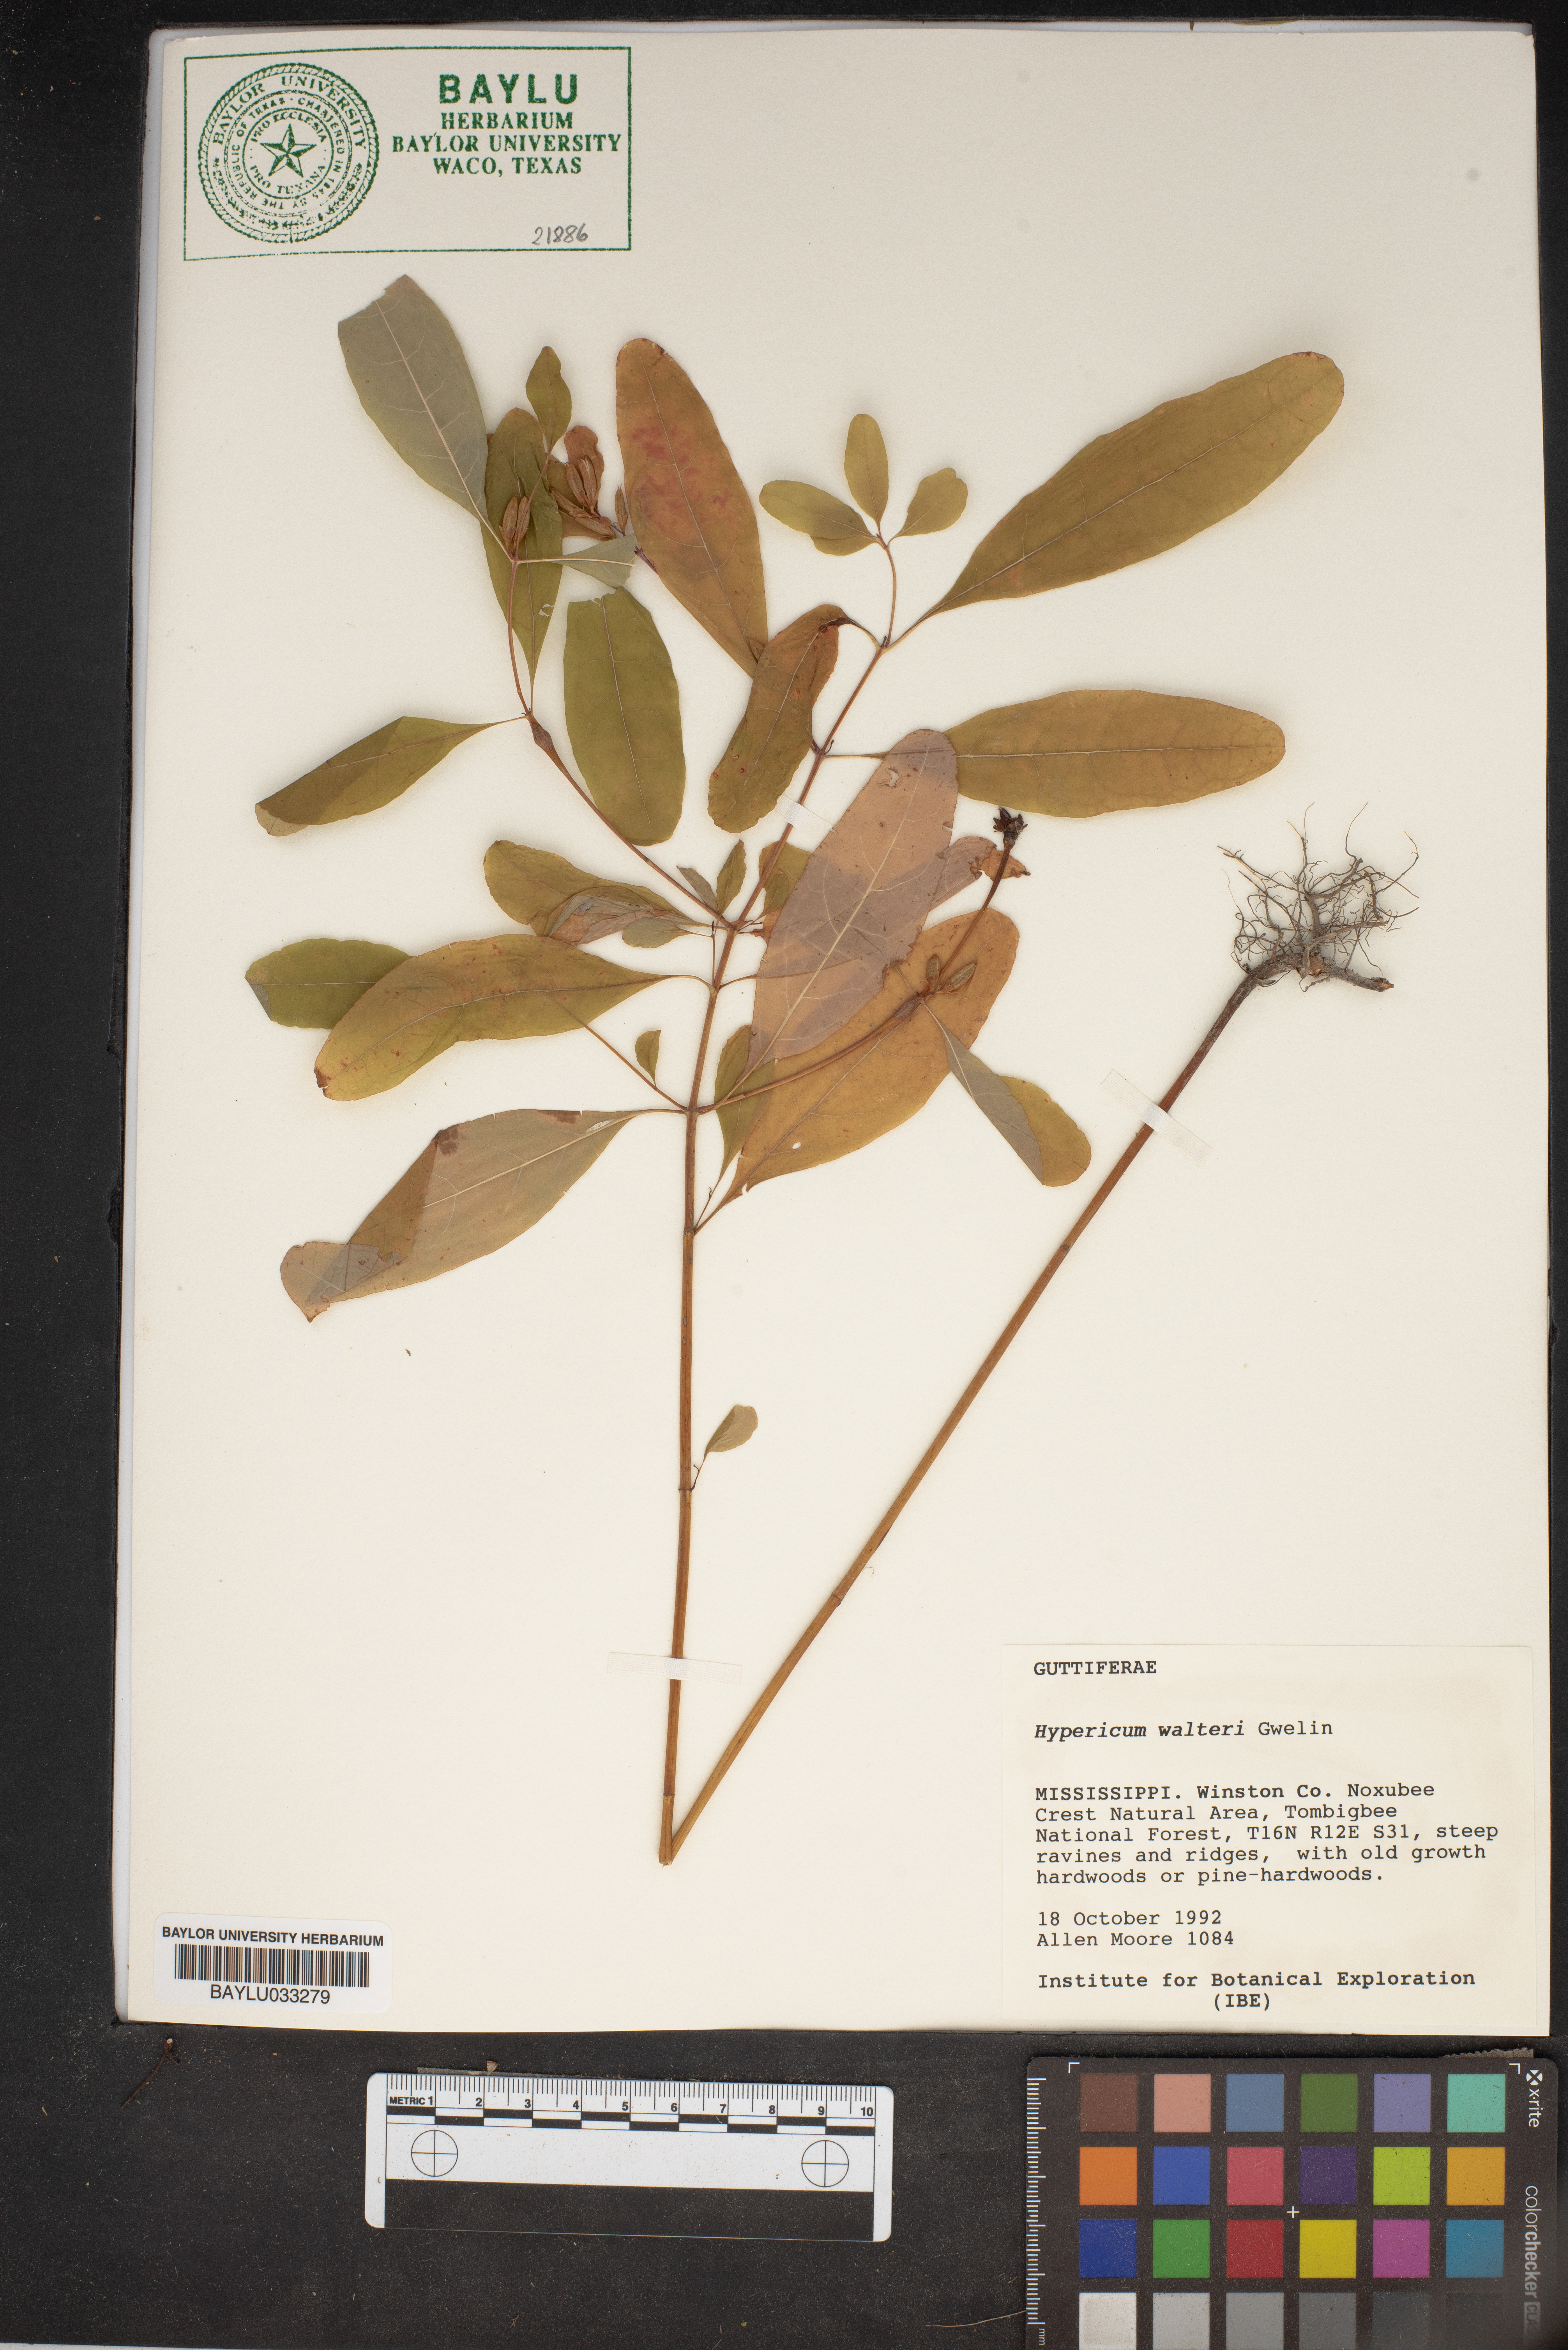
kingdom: Plantae
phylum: Tracheophyta
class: Magnoliopsida
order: Malpighiales
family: Hypericaceae
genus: Triadenum
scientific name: Triadenum walteri
